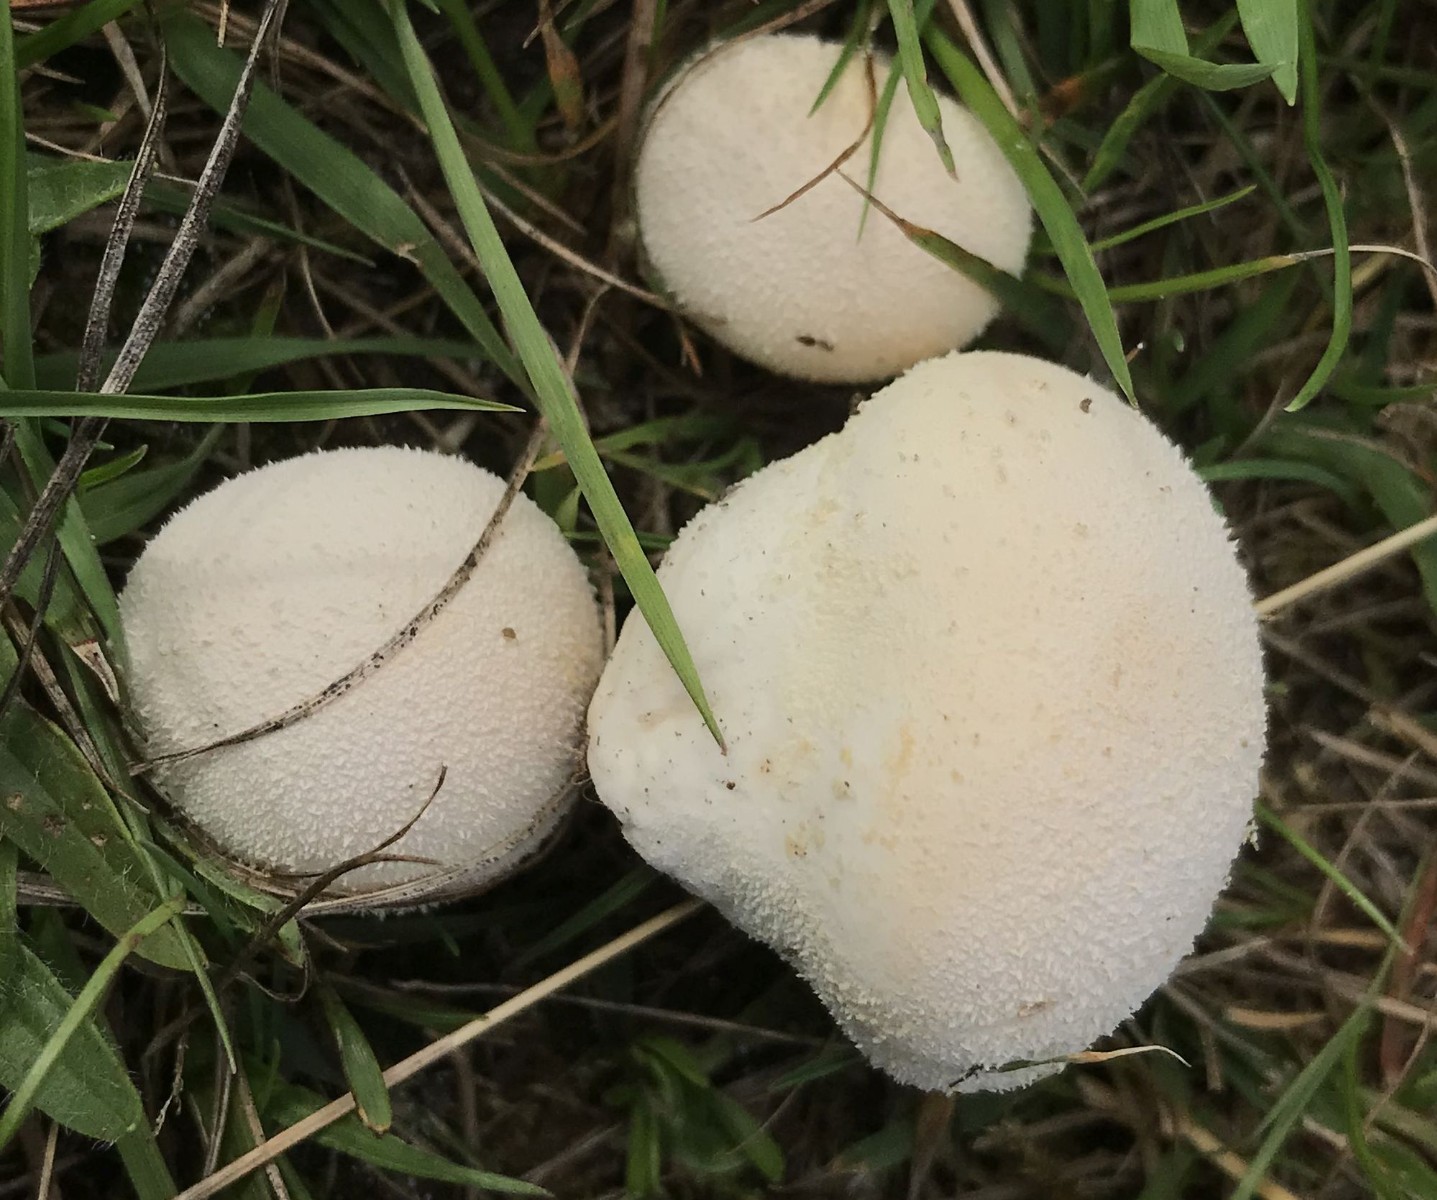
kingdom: Fungi
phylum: Basidiomycota
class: Agaricomycetes
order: Agaricales
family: Lycoperdaceae
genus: Lycoperdon
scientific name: Lycoperdon pratense
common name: flad støvbold
